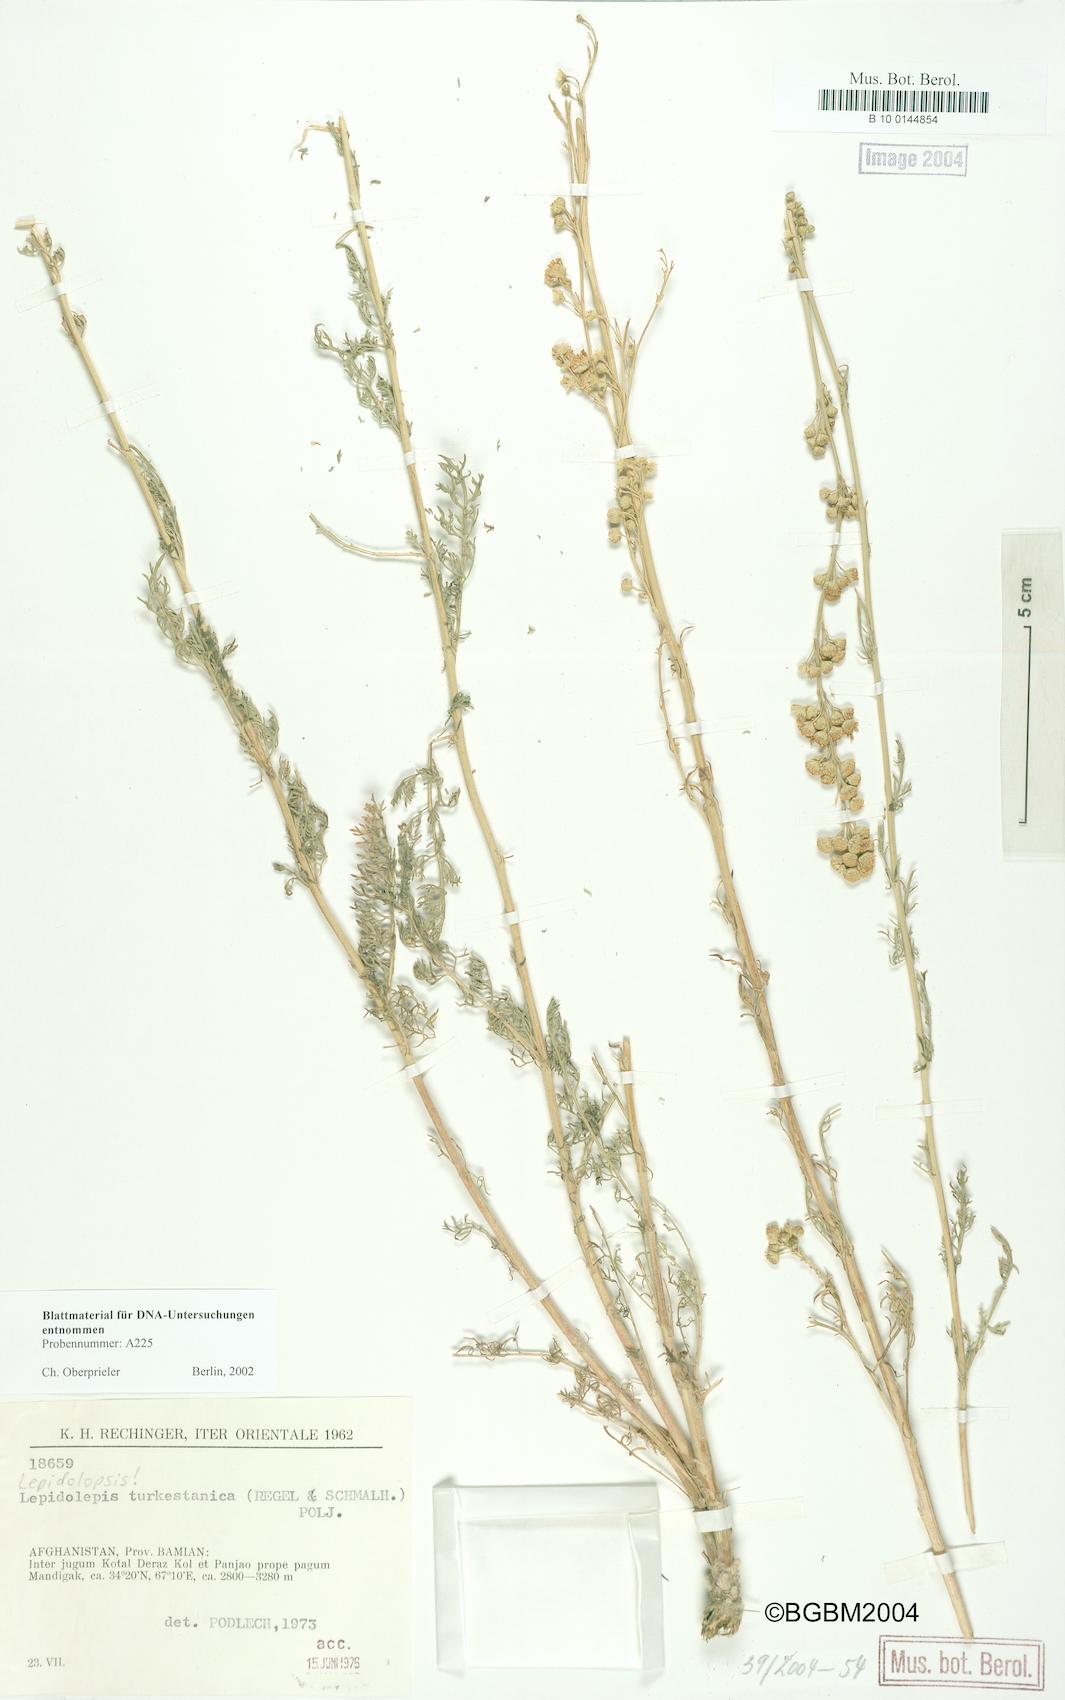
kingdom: Plantae
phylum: Tracheophyta
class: Magnoliopsida
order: Asterales
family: Asteraceae
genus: Lepidolopsis
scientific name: Lepidolopsis turkestanica
